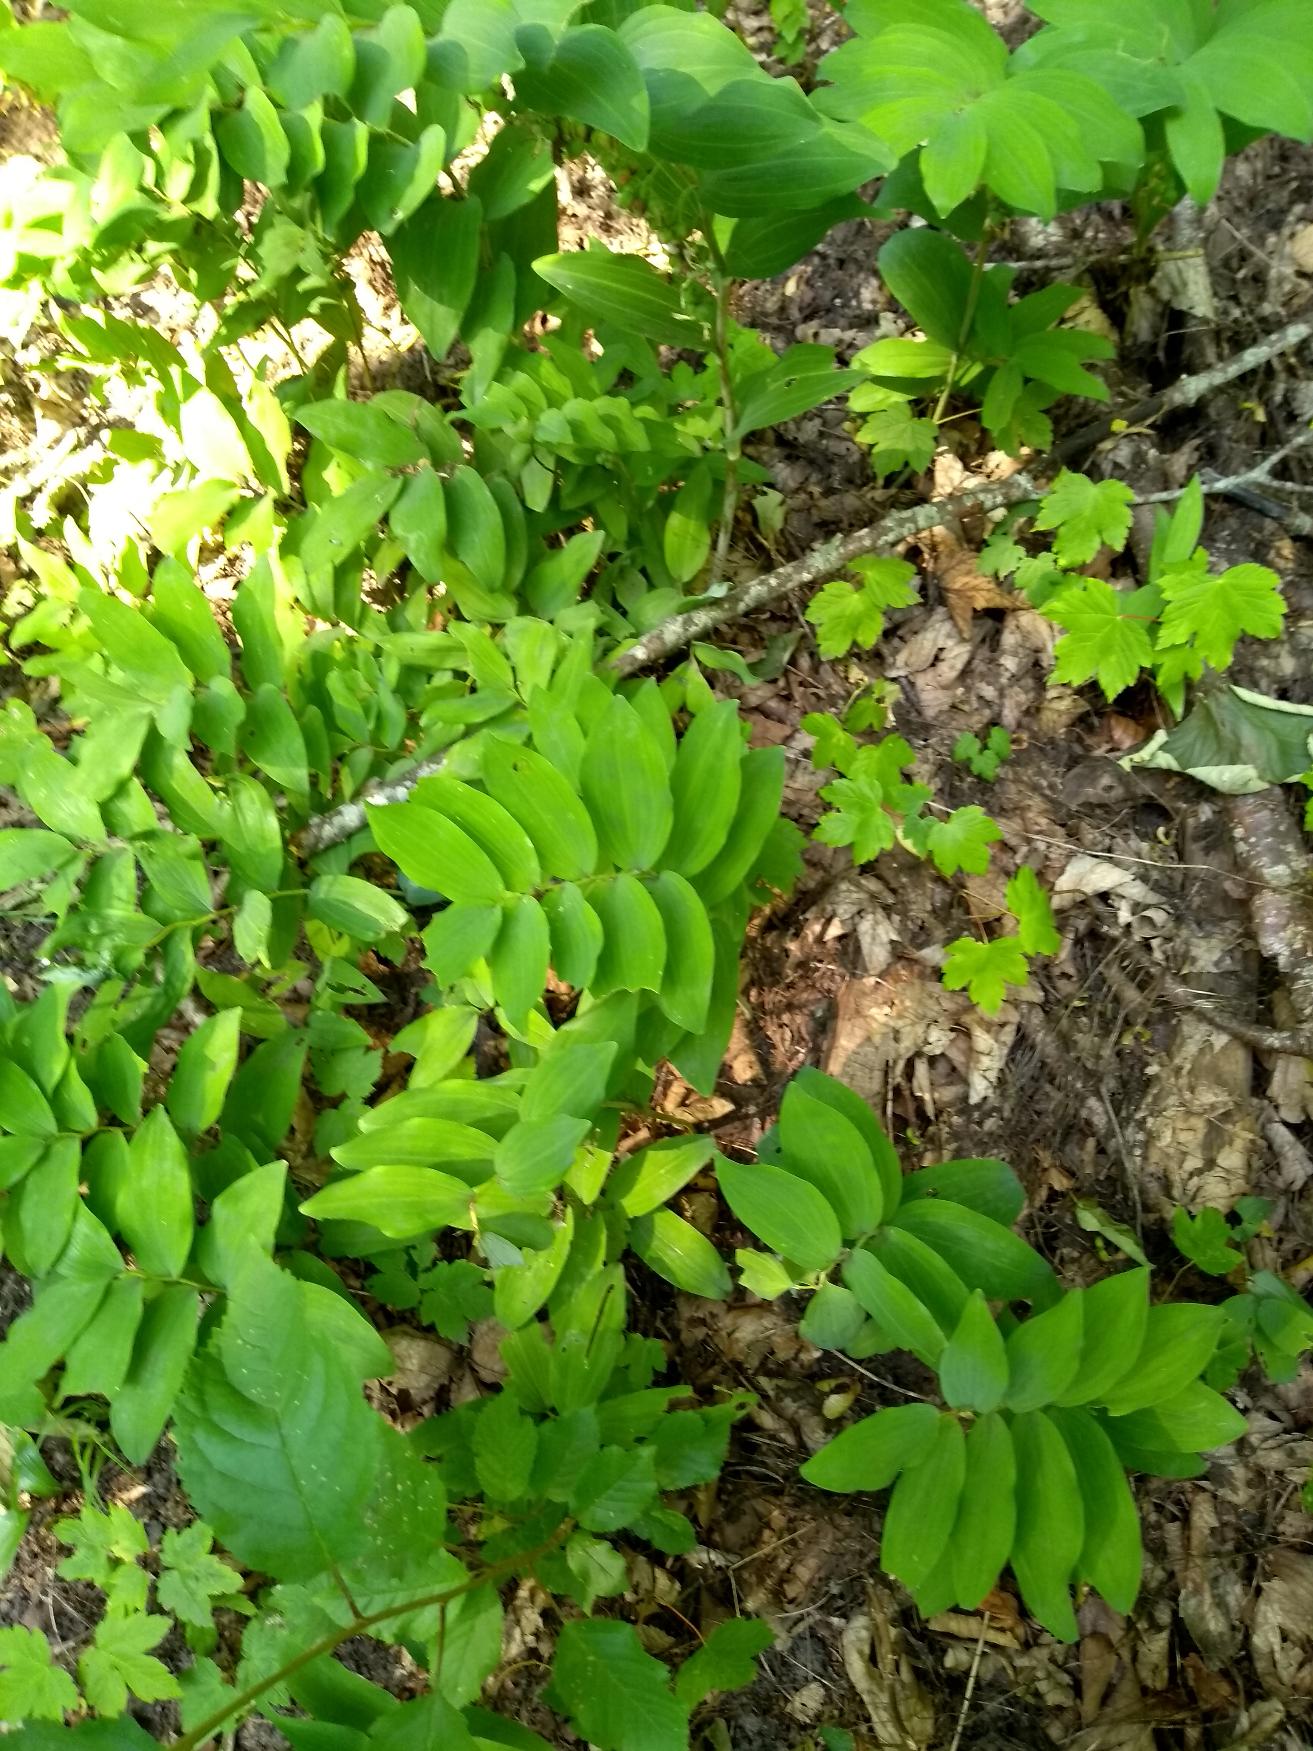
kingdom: Plantae
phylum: Tracheophyta
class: Liliopsida
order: Asparagales
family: Asparagaceae
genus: Polygonatum
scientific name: Polygonatum multiflorum
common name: Stor konval
